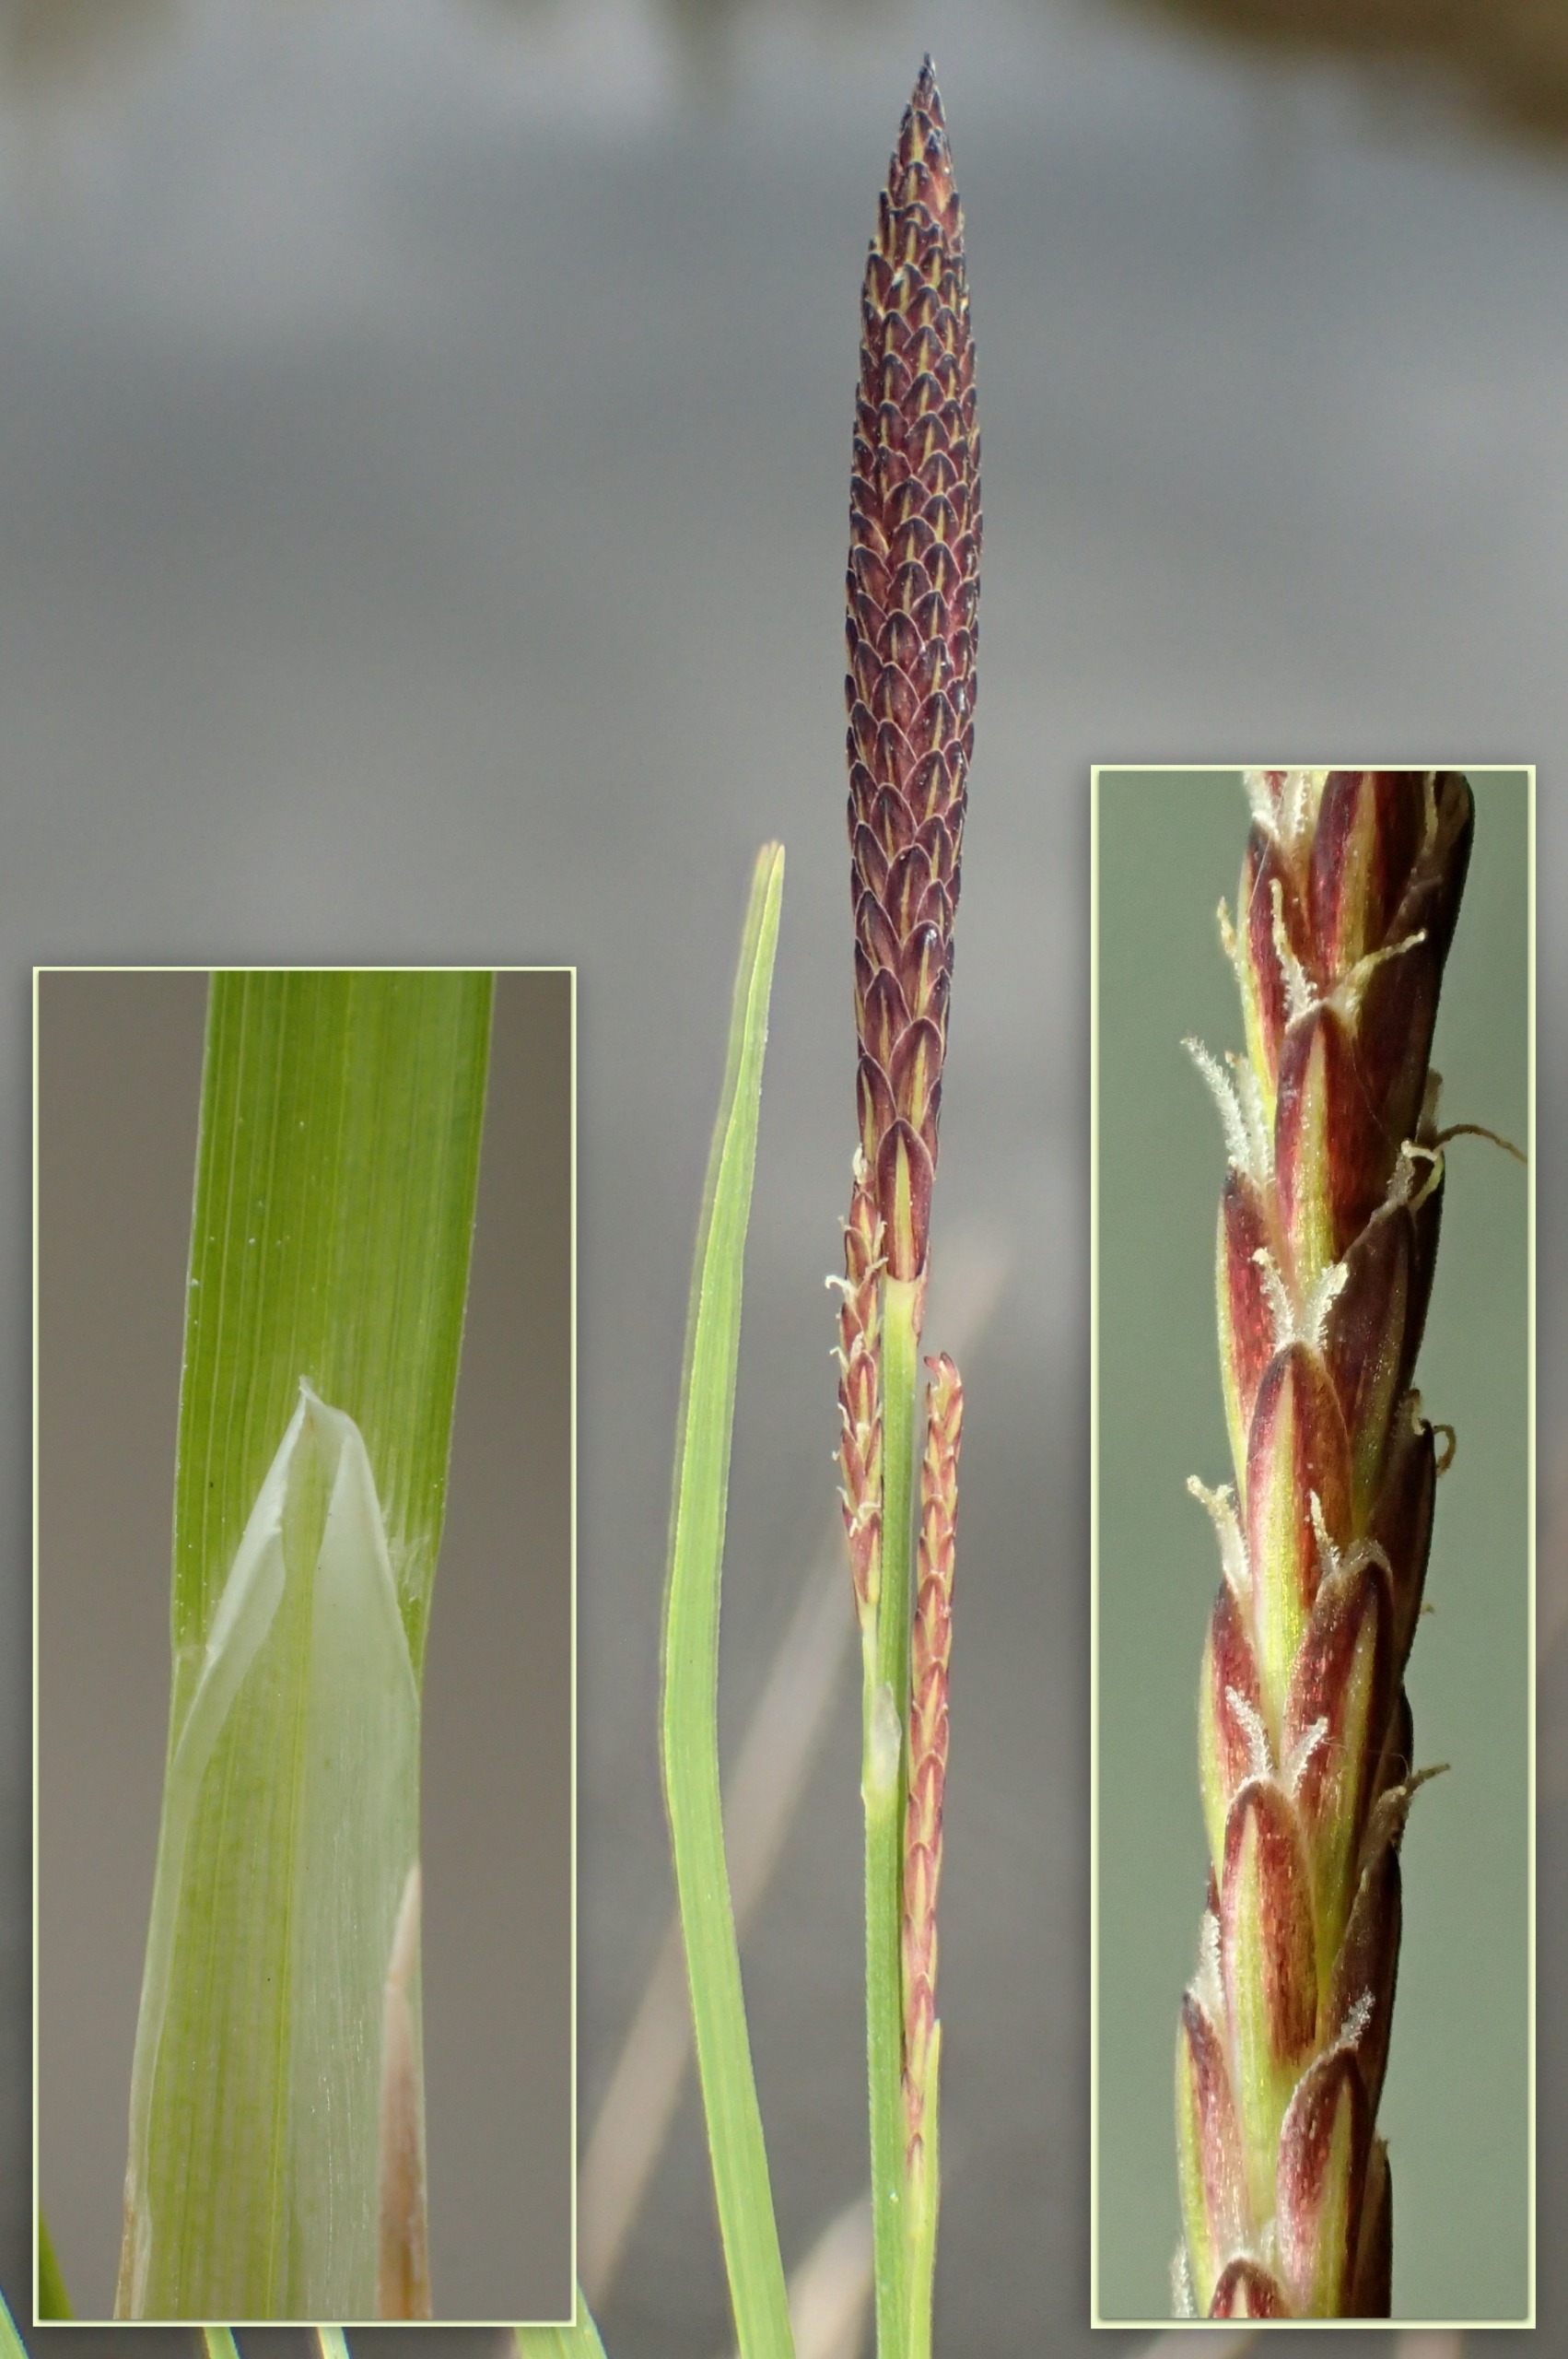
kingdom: Plantae
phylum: Tracheophyta
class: Liliopsida
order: Poales
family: Cyperaceae
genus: Carex
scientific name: Carex cespitosa
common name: Tue-star
